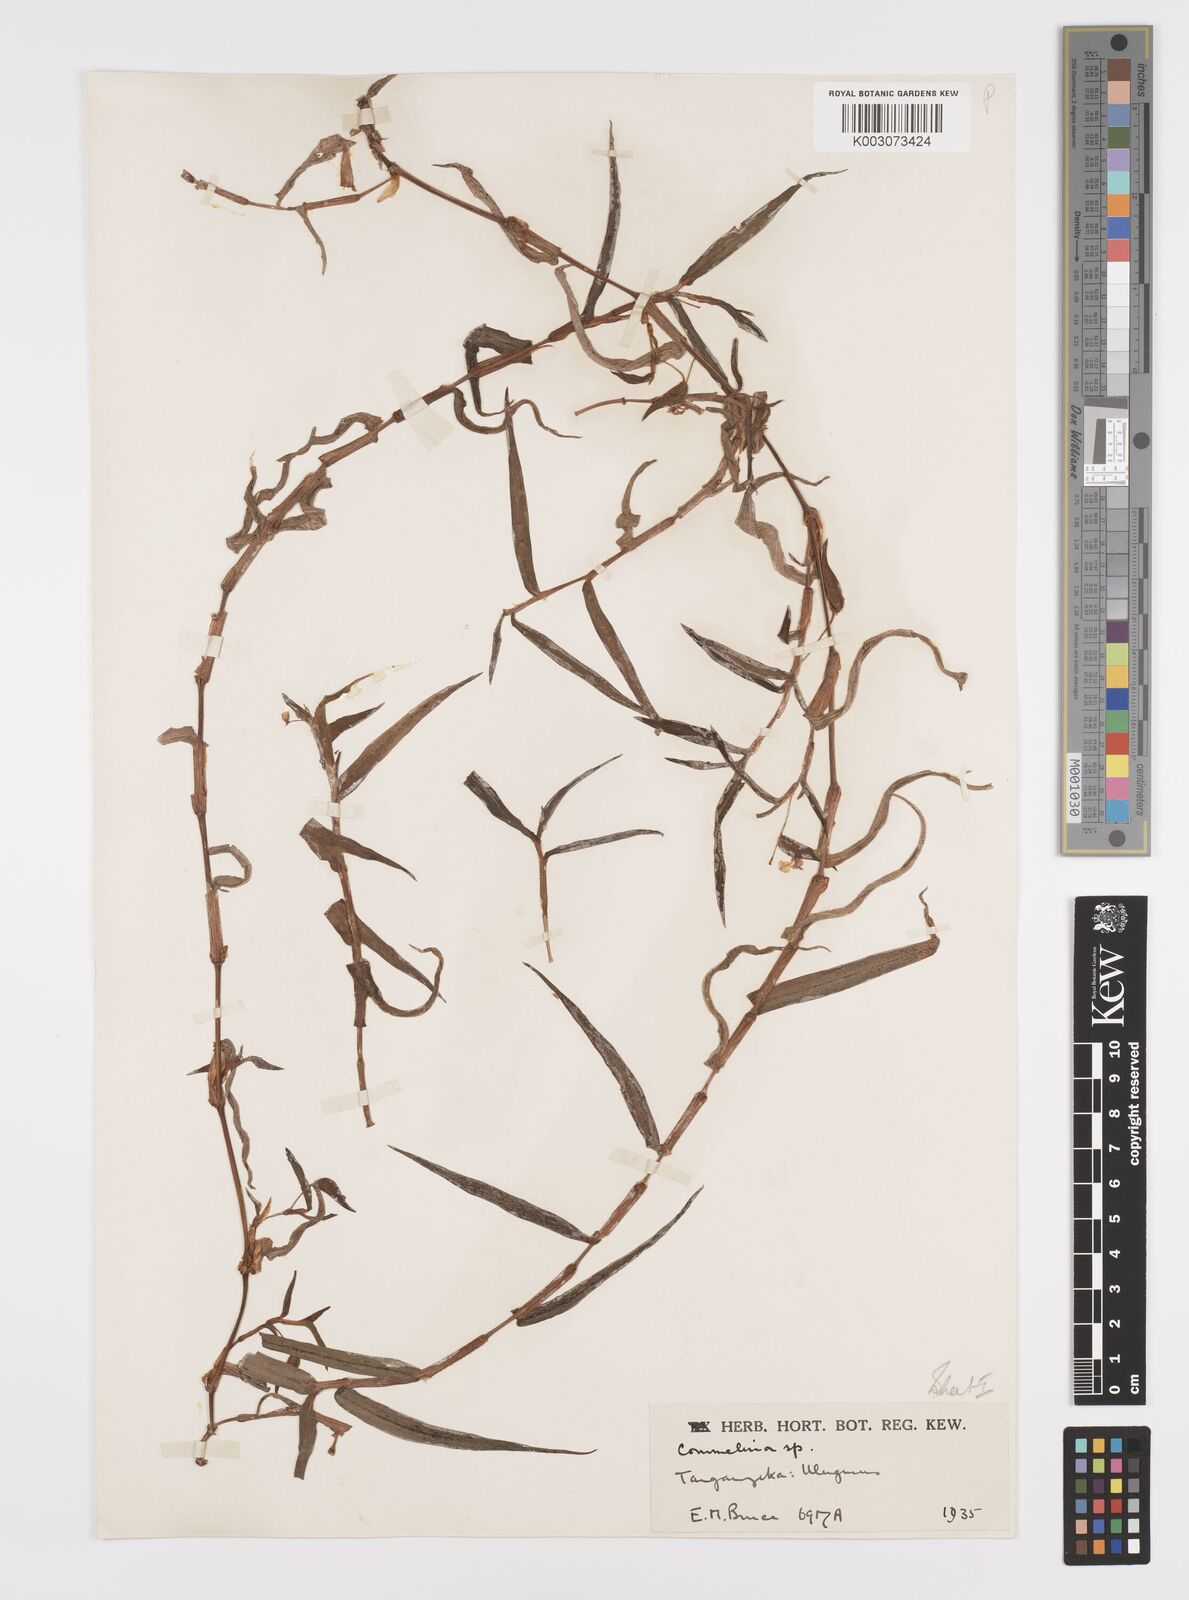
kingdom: Plantae
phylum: Tracheophyta
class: Liliopsida
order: Commelinales
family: Commelinaceae
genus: Commelina
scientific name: Commelina africana
